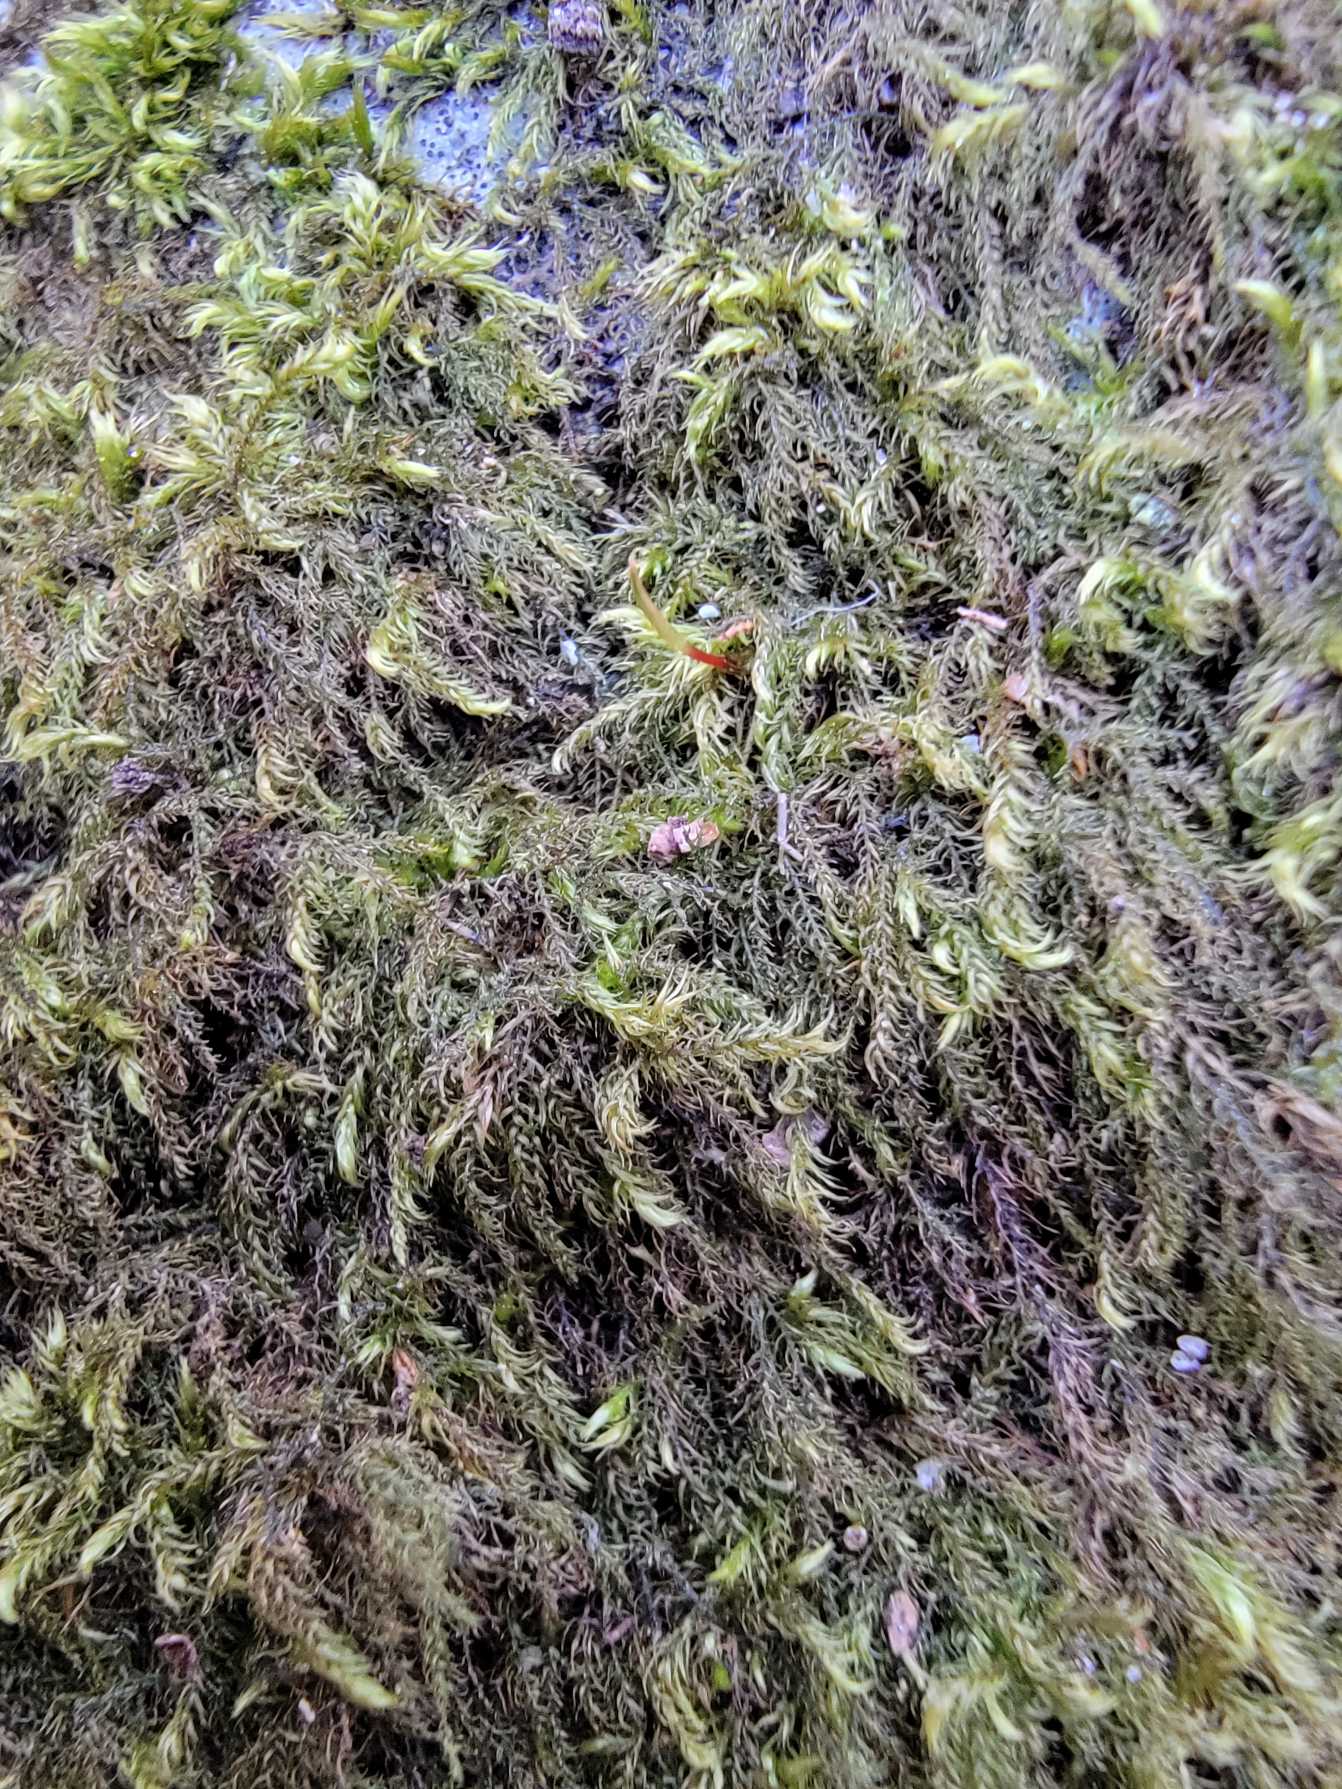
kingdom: Plantae
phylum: Bryophyta
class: Bryopsida
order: Hypnales
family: Amblystegiaceae
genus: Hygroamblystegium
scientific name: Hygroamblystegium tenax
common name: Stiv vandkrybmos
